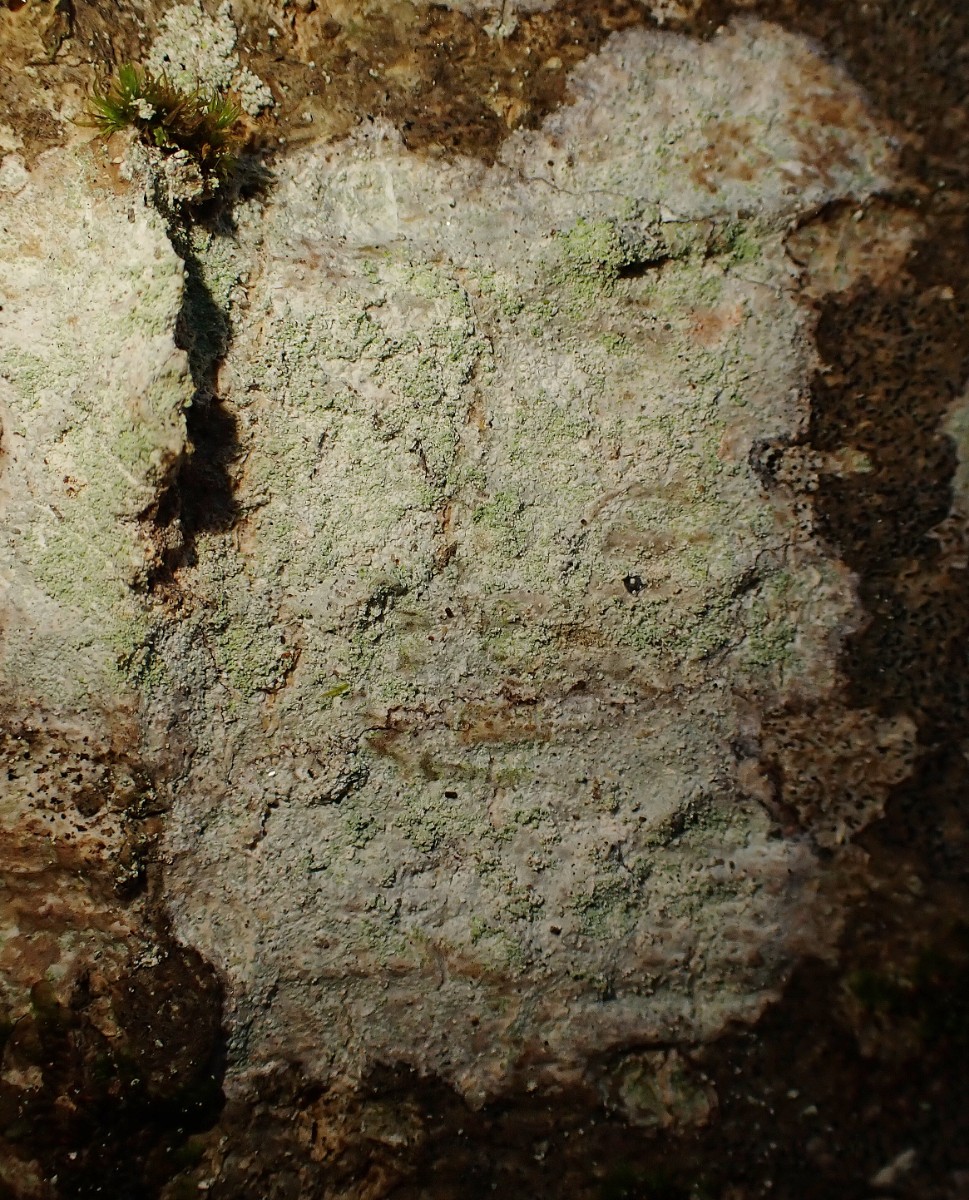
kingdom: Fungi
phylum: Ascomycota
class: Lecanoromycetes
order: Ostropales
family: Phlyctidaceae
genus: Phlyctis
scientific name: Phlyctis argena
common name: almindelig sølvlav
